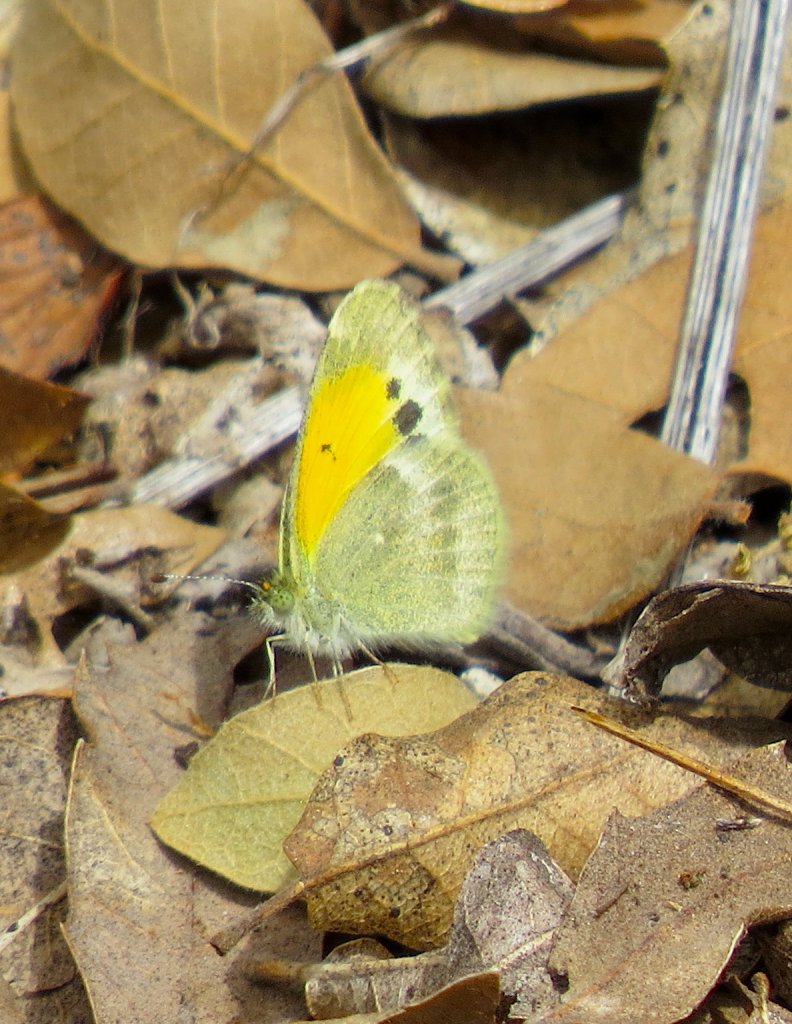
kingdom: Animalia
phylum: Arthropoda
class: Insecta
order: Lepidoptera
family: Pieridae
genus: Nathalis
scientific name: Nathalis iole
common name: Dainty Sulphur
